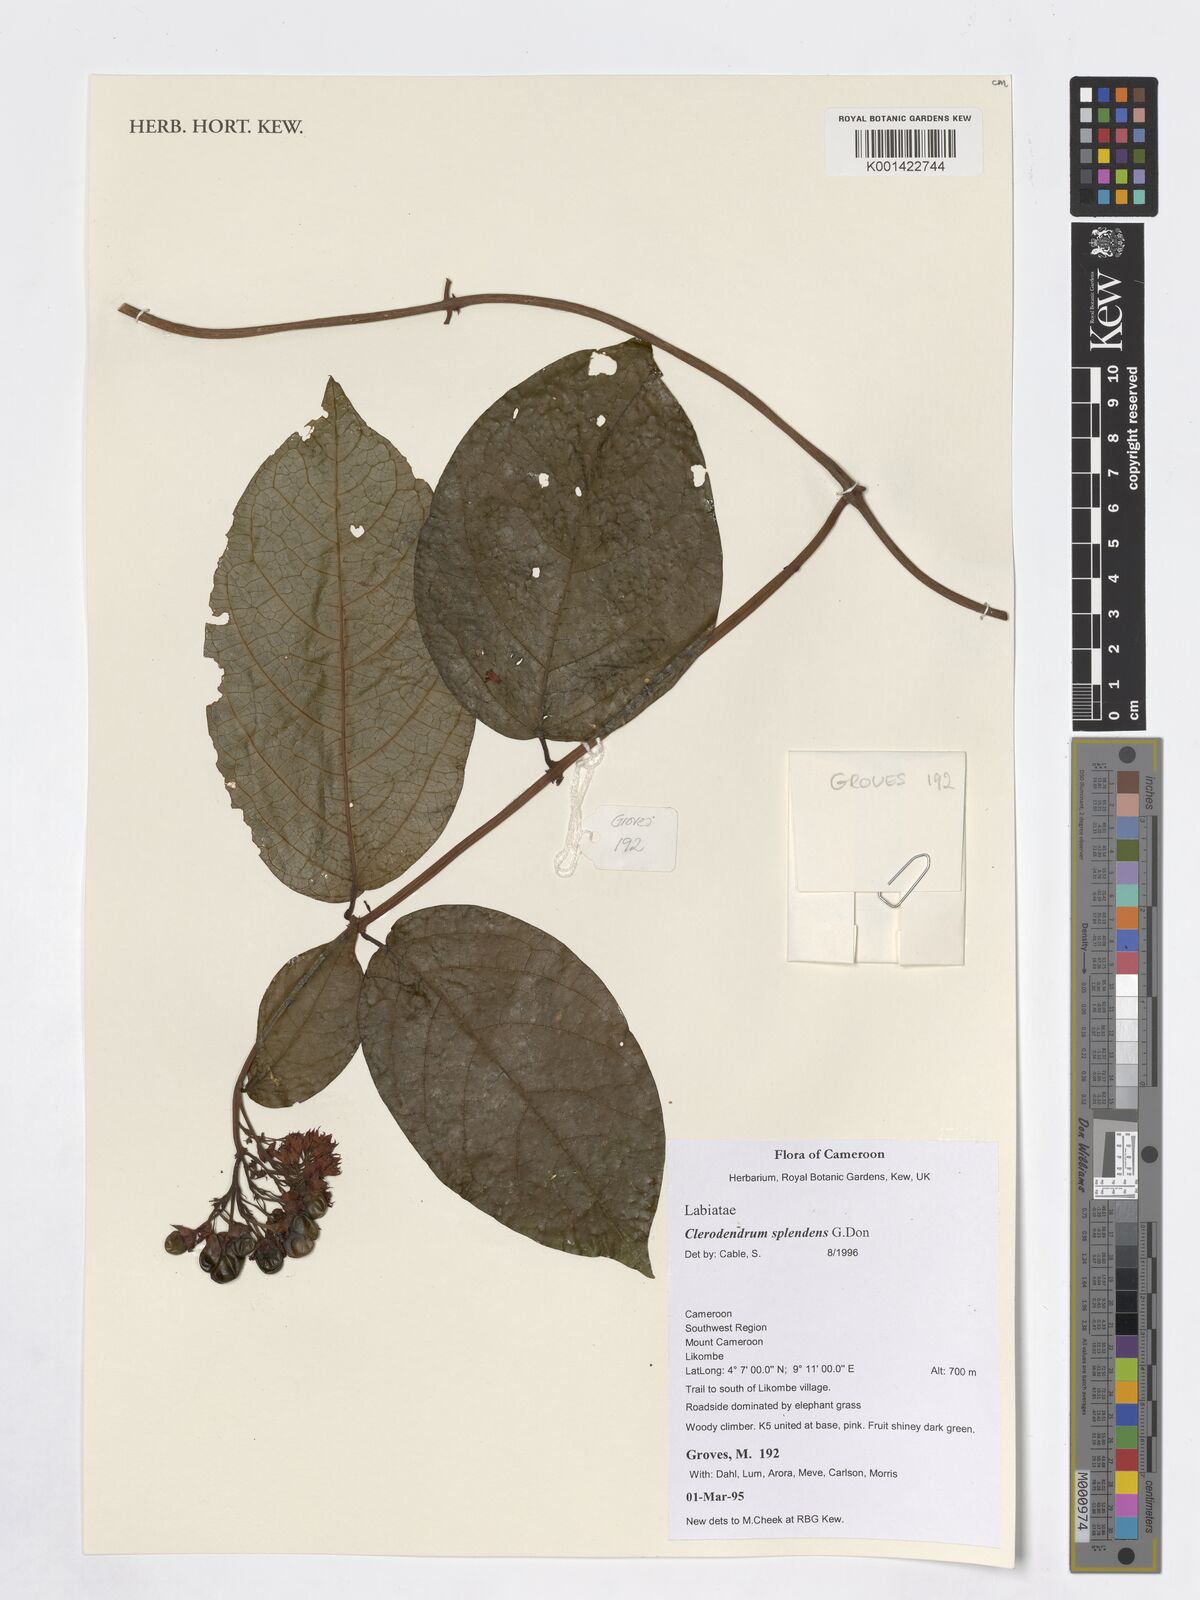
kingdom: Plantae
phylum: Tracheophyta
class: Magnoliopsida
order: Lamiales
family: Lamiaceae
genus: Clerodendrum
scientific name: Clerodendrum splendens
